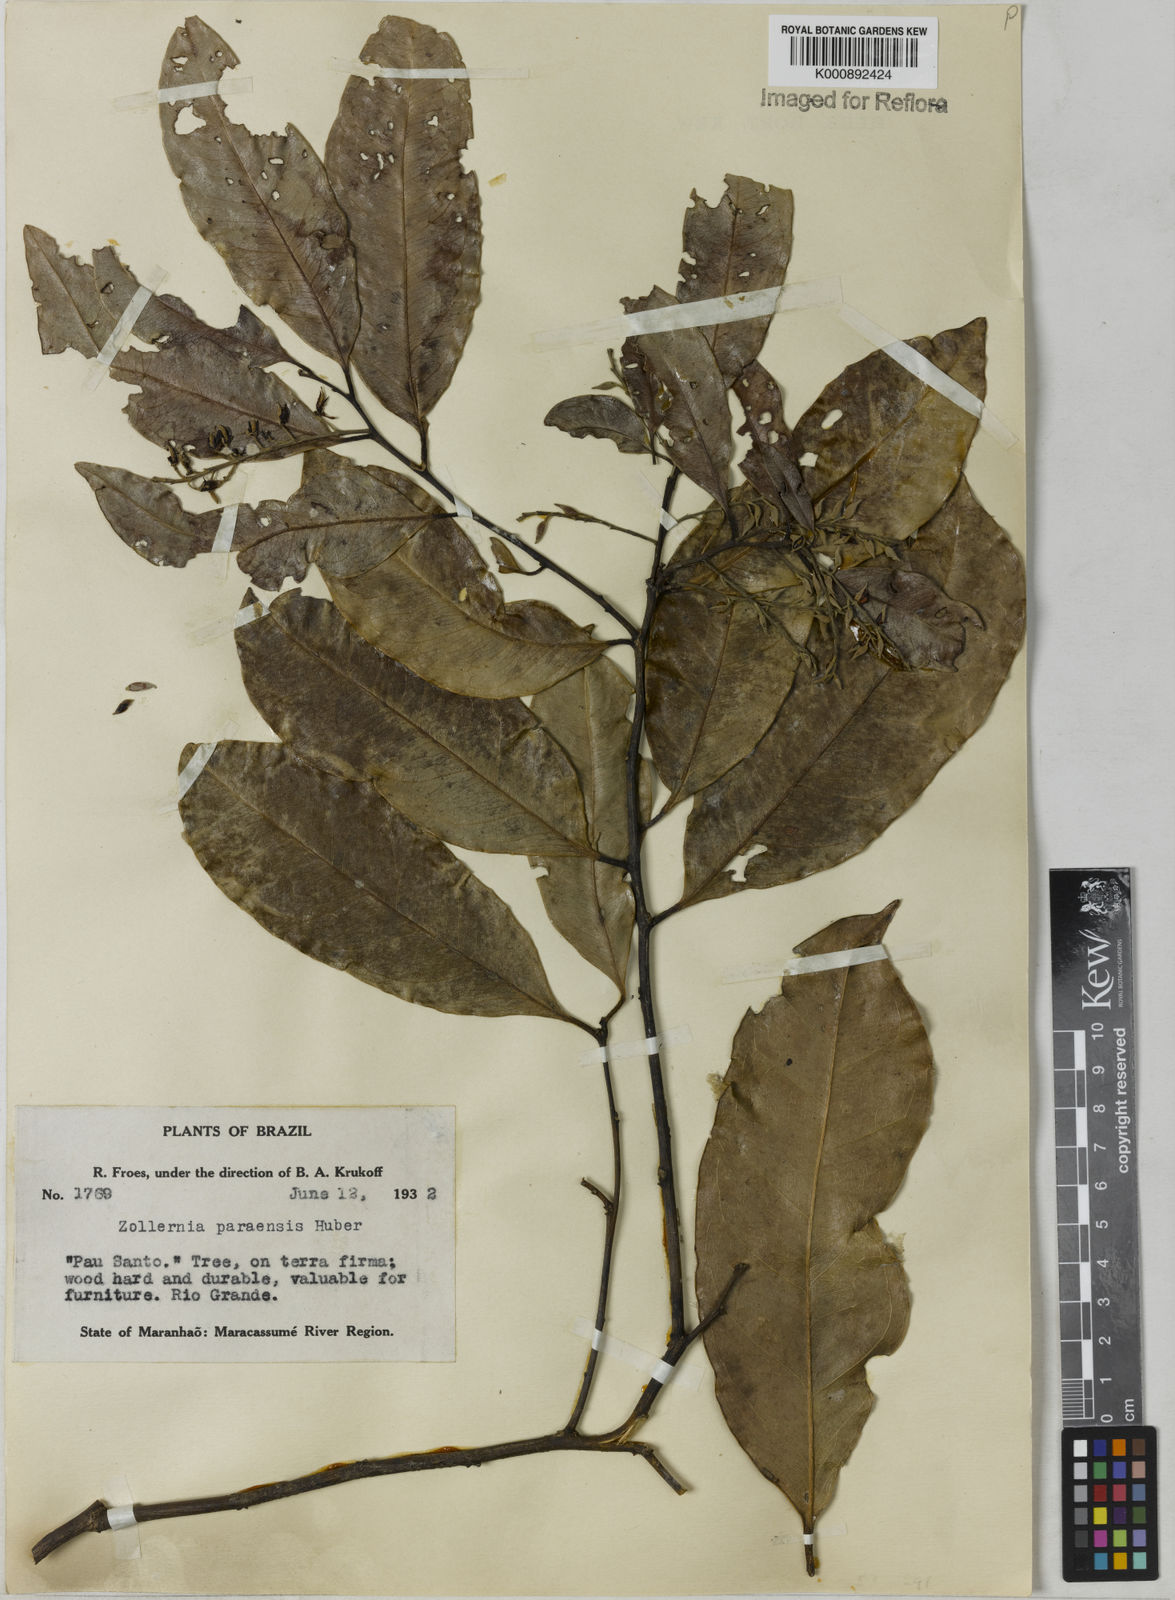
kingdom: Plantae
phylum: Tracheophyta
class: Magnoliopsida
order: Fabales
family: Fabaceae
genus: Zollernia
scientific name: Zollernia paraensis
